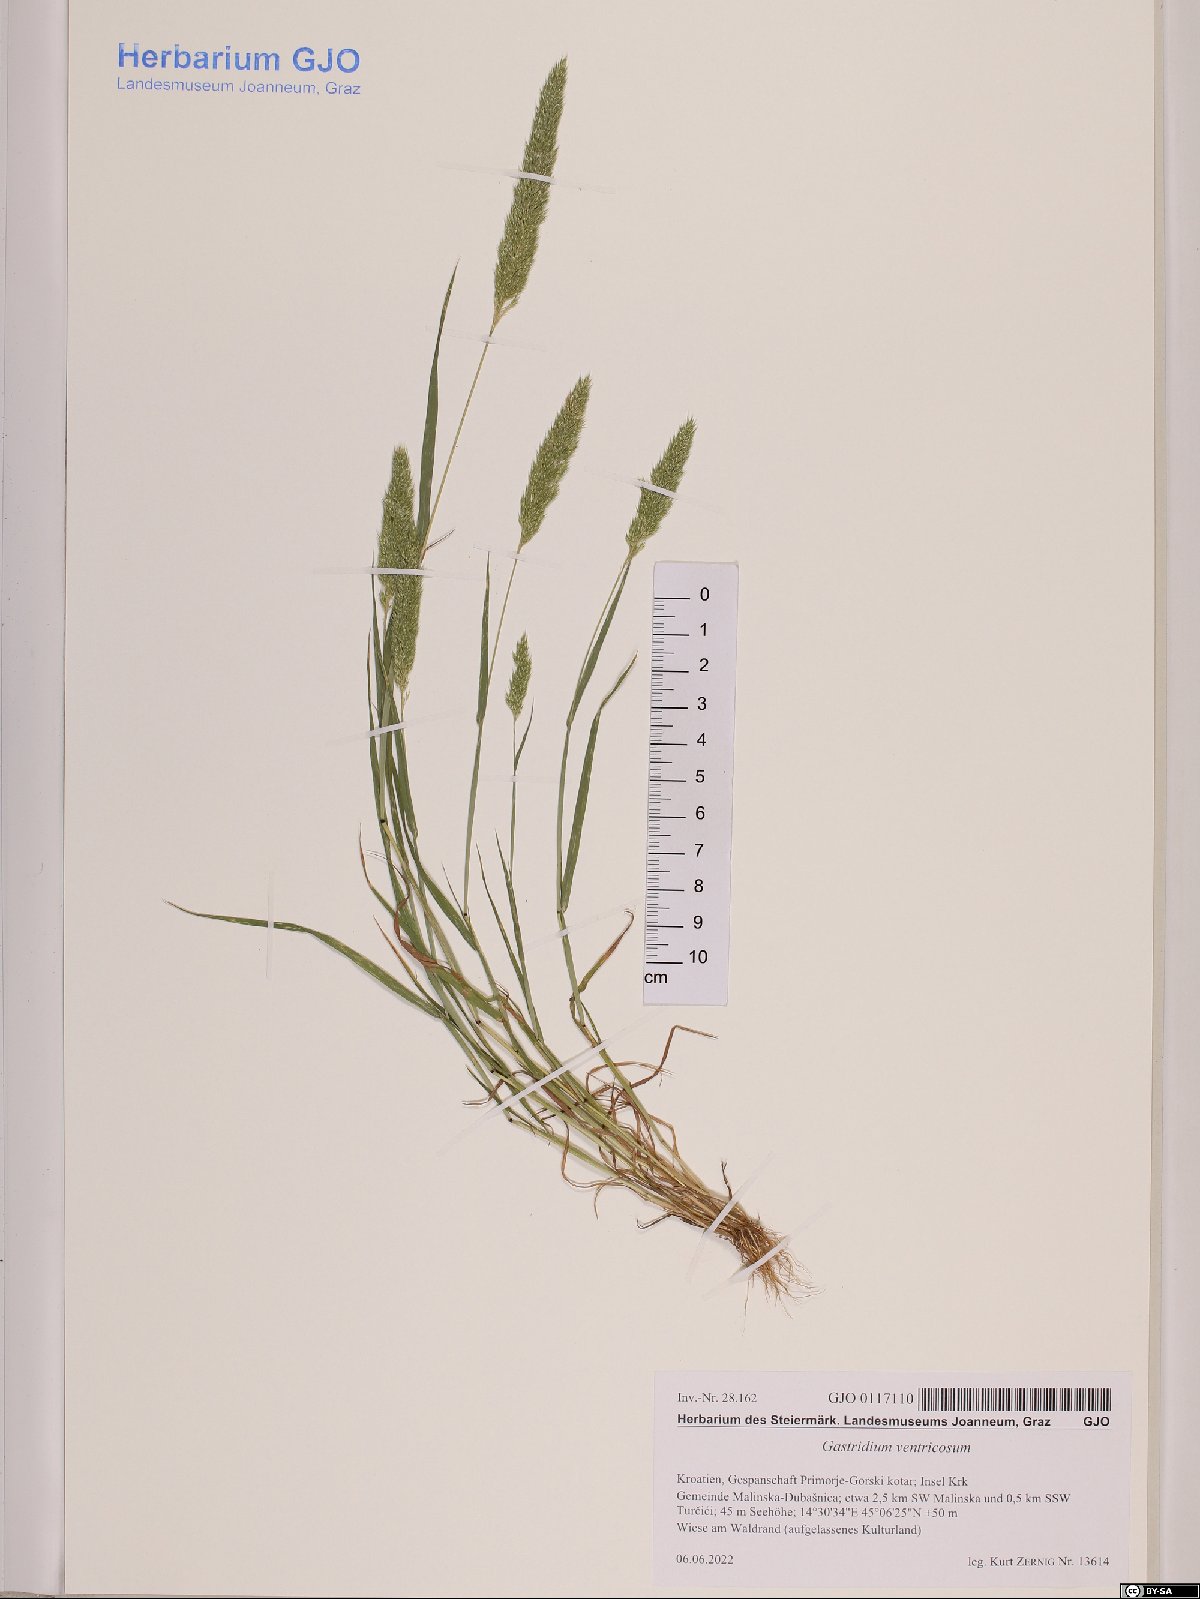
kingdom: Plantae
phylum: Tracheophyta
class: Liliopsida
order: Poales
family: Poaceae
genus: Gastridium
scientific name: Gastridium ventricosum
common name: Nit-grass
